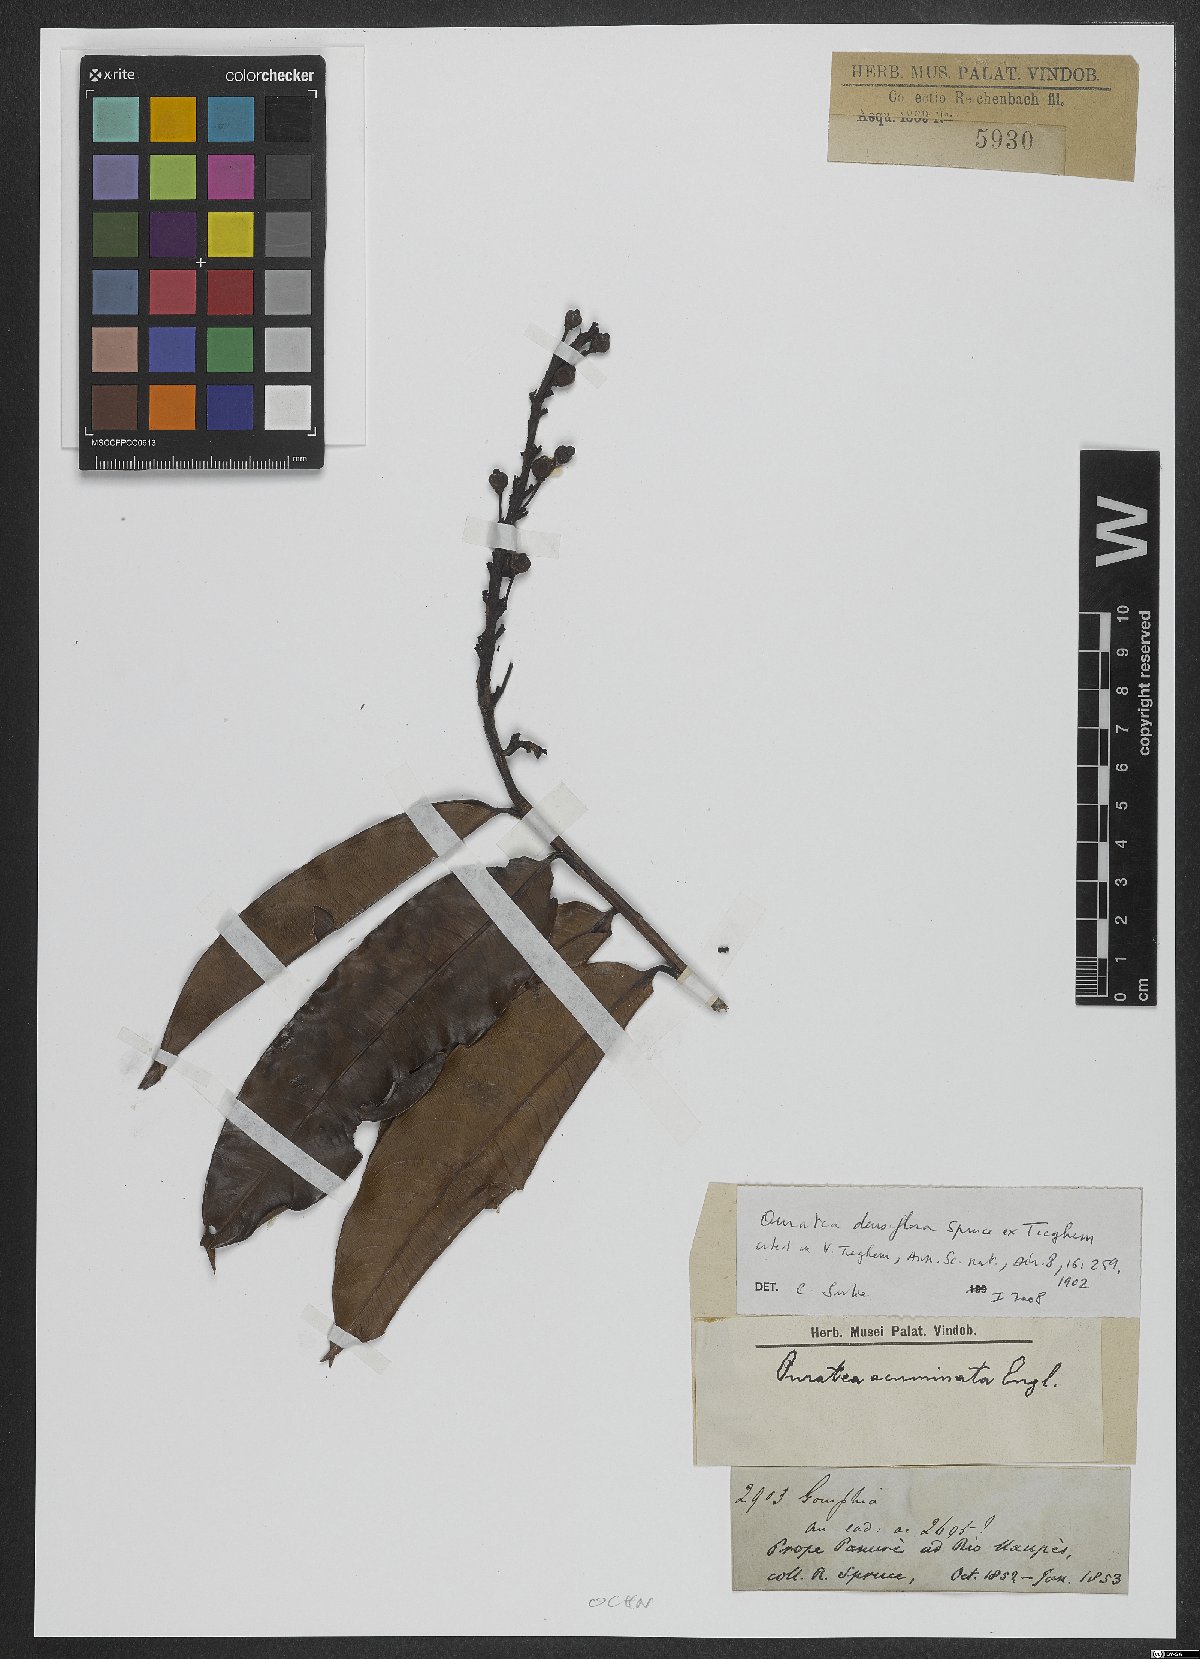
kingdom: Plantae
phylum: Tracheophyta
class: Magnoliopsida
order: Malpighiales
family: Ochnaceae
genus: Gomphia
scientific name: Gomphia densiflora
